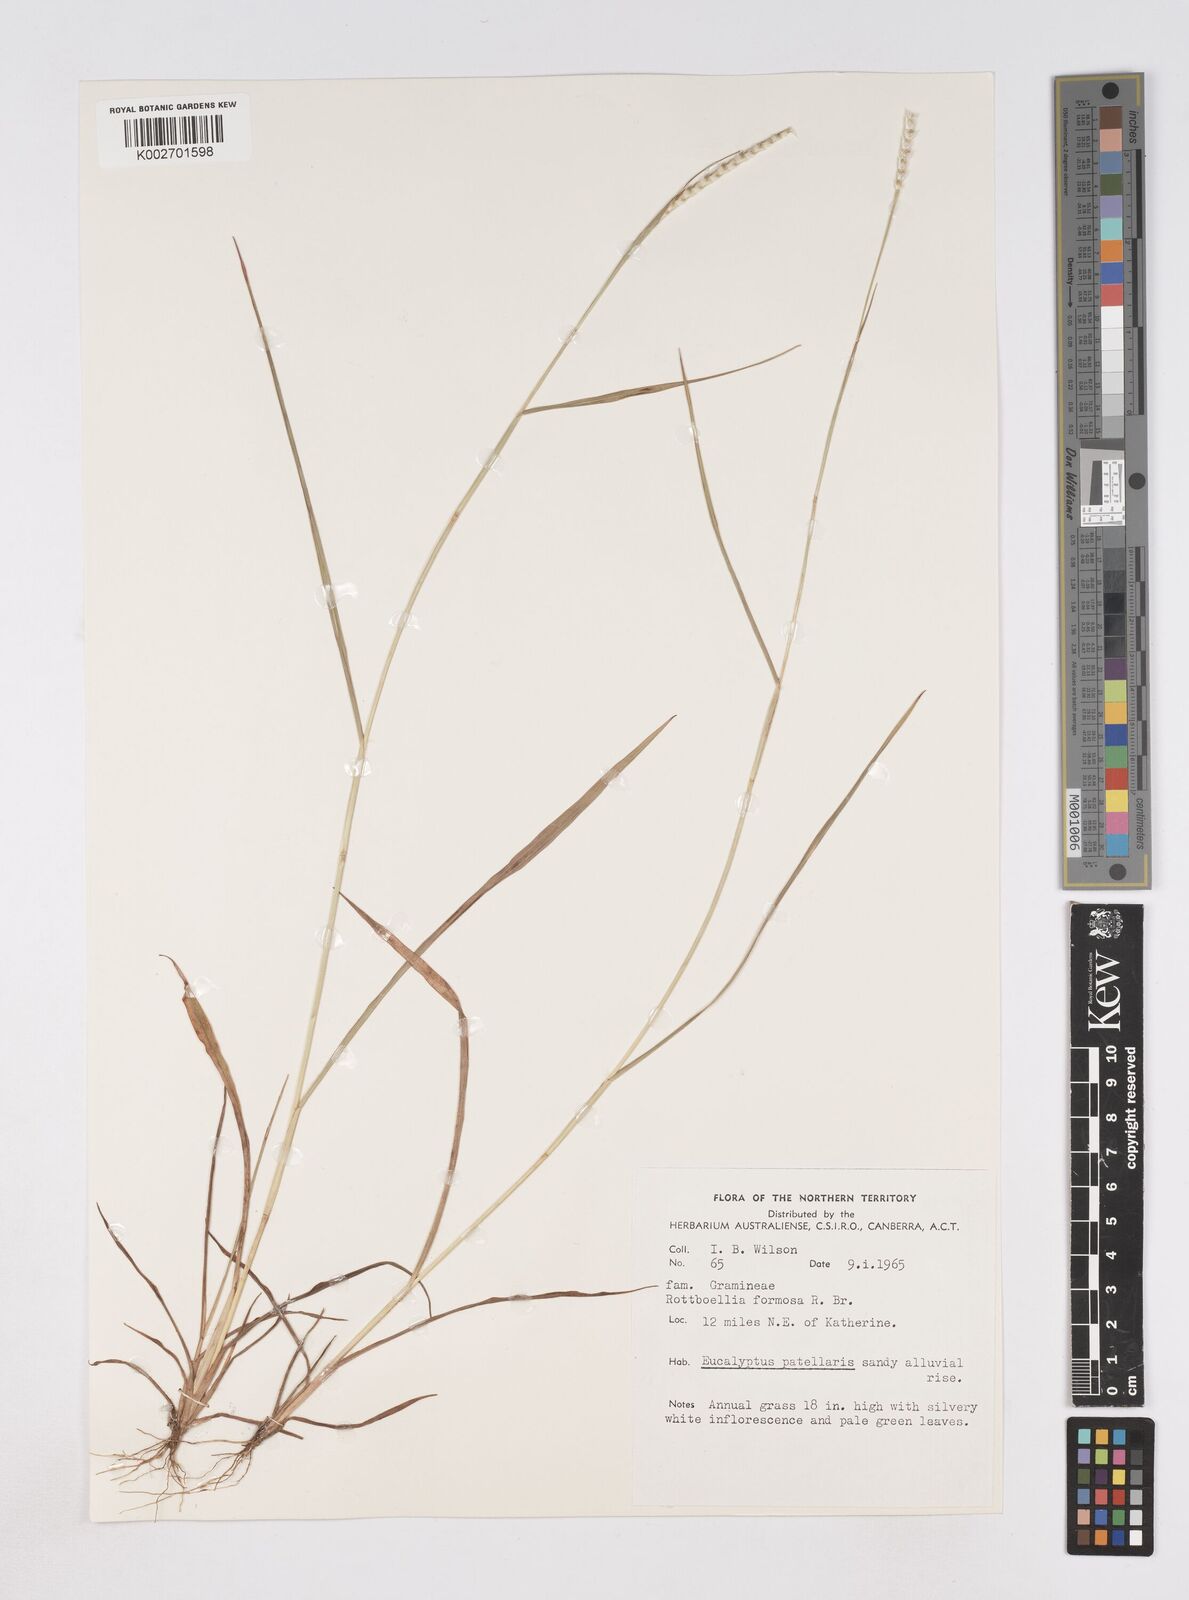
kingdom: Plantae
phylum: Tracheophyta
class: Liliopsida
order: Poales
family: Poaceae
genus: Heteropholis
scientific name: Heteropholis
